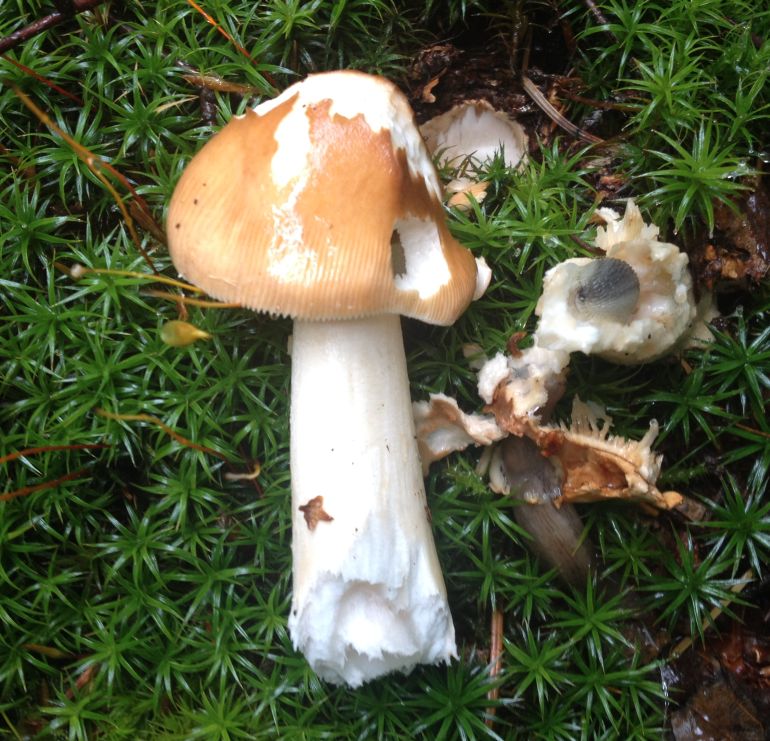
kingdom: Fungi
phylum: Basidiomycota
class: Agaricomycetes
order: Agaricales
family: Amanitaceae
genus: Amanita
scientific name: Amanita fulva
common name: brun kam-fluesvamp
